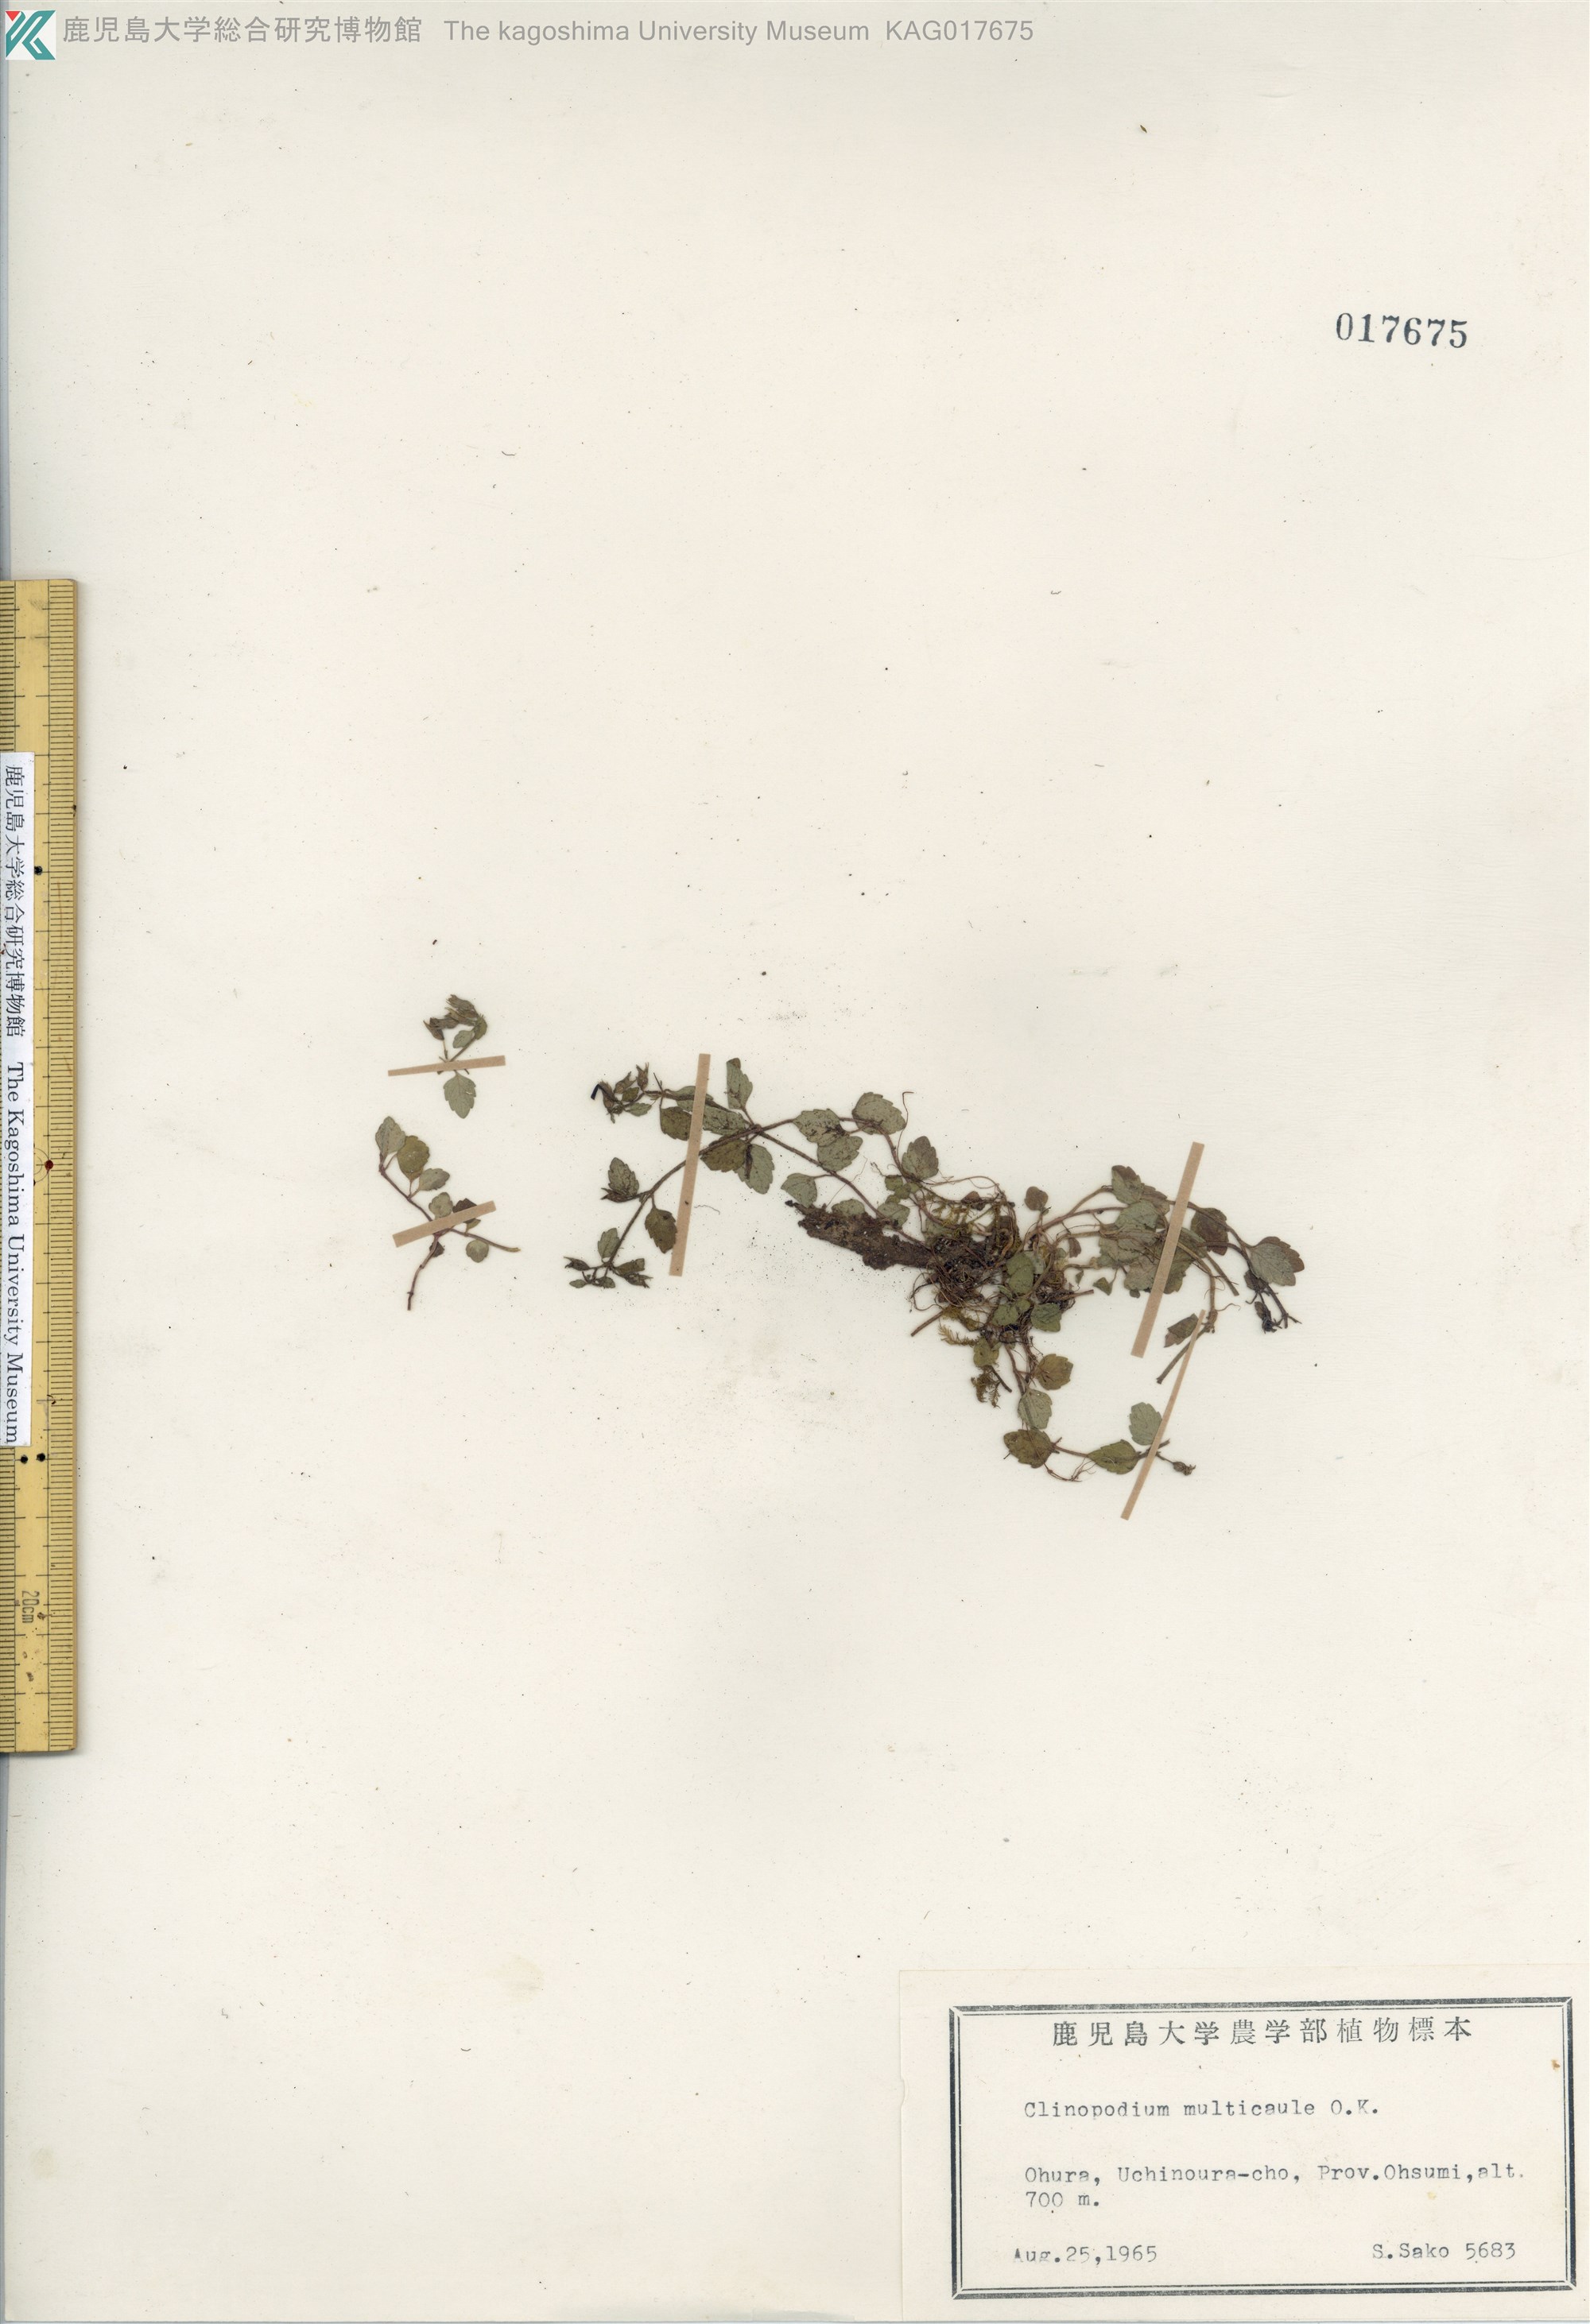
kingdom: Plantae
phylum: Tracheophyta
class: Magnoliopsida
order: Lamiales
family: Lamiaceae
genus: Clinopodium
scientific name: Clinopodium multicaule
